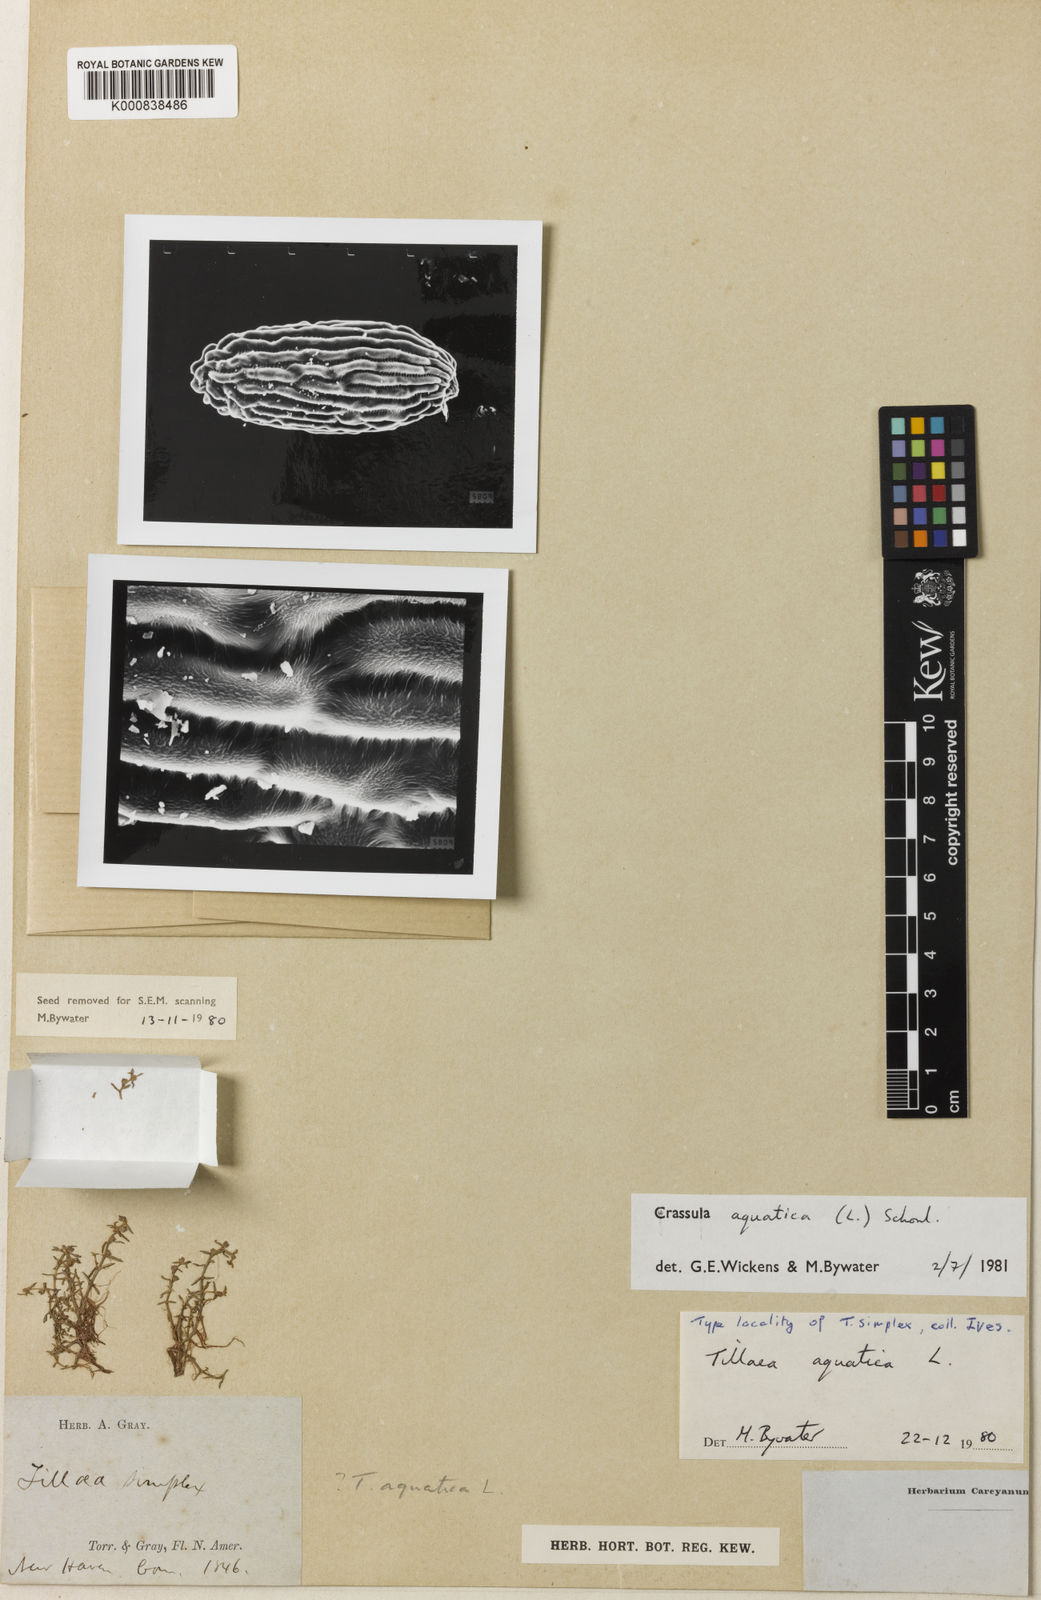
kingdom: Plantae
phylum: Tracheophyta
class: Magnoliopsida
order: Saxifragales
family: Crassulaceae
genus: Crassula
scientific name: Crassula
